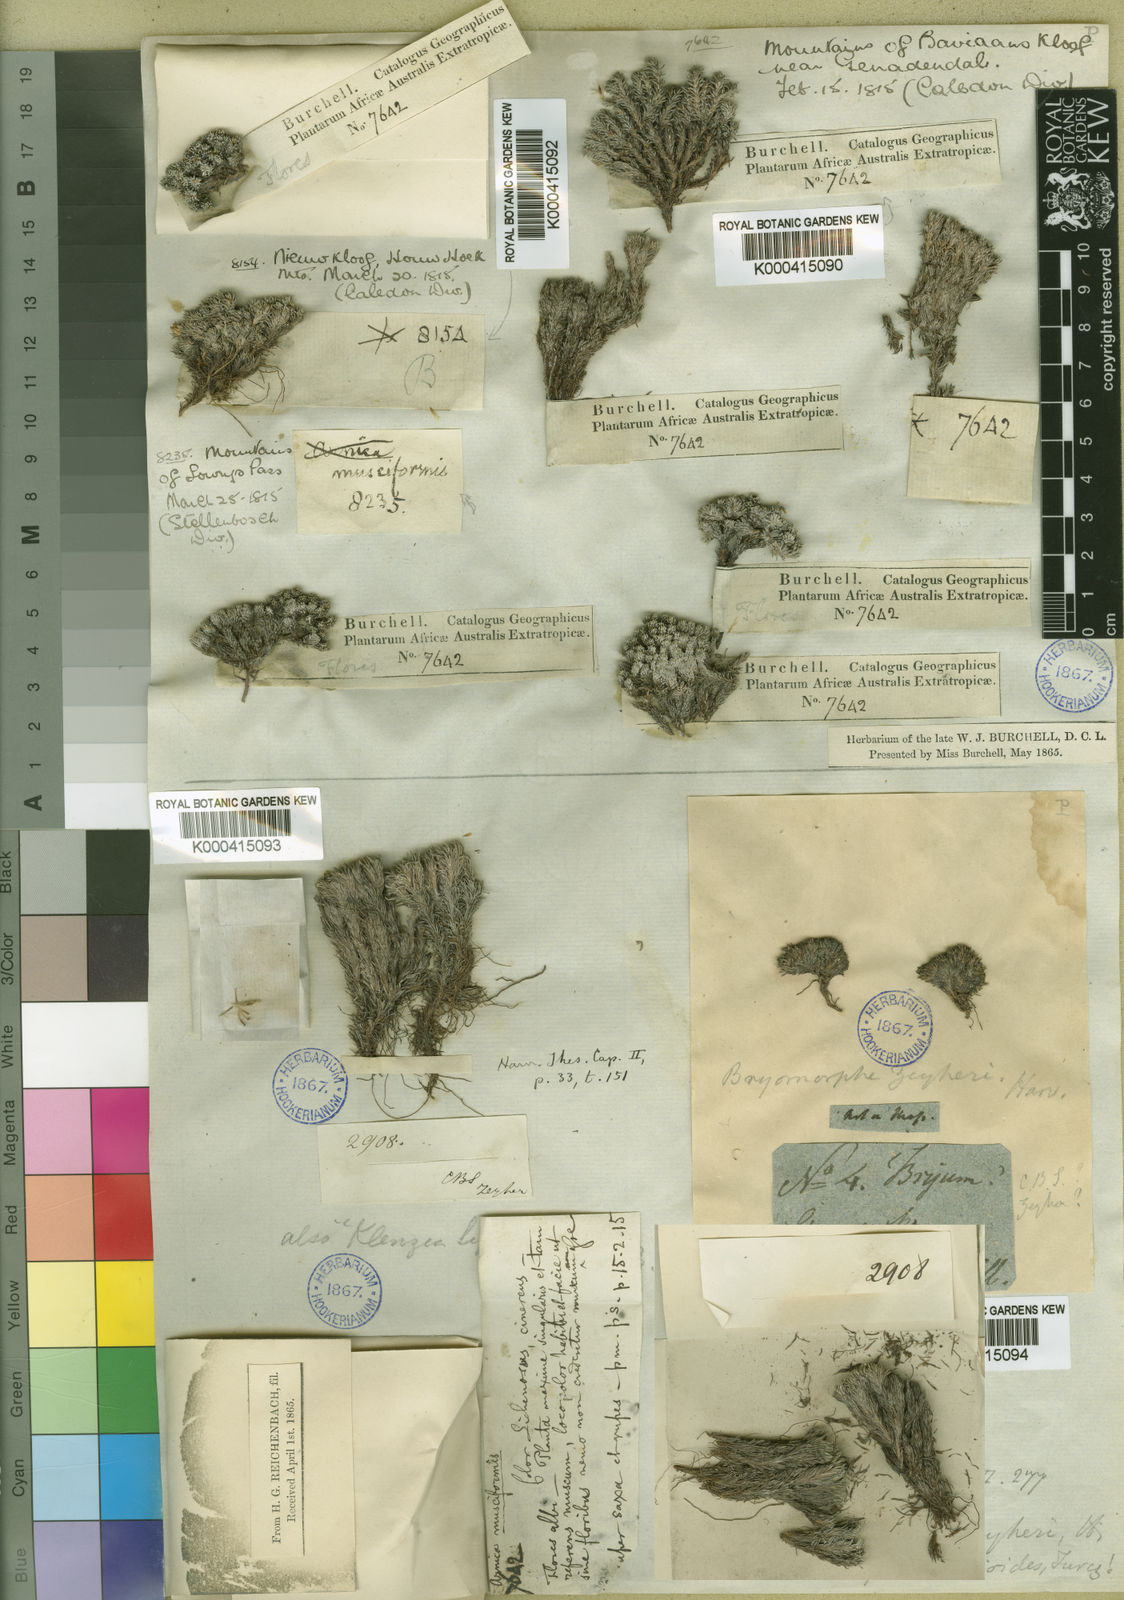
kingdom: Plantae
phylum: Tracheophyta
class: Magnoliopsida
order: Asterales
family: Asteraceae
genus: Dolichothrix
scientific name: Dolichothrix ericoides
